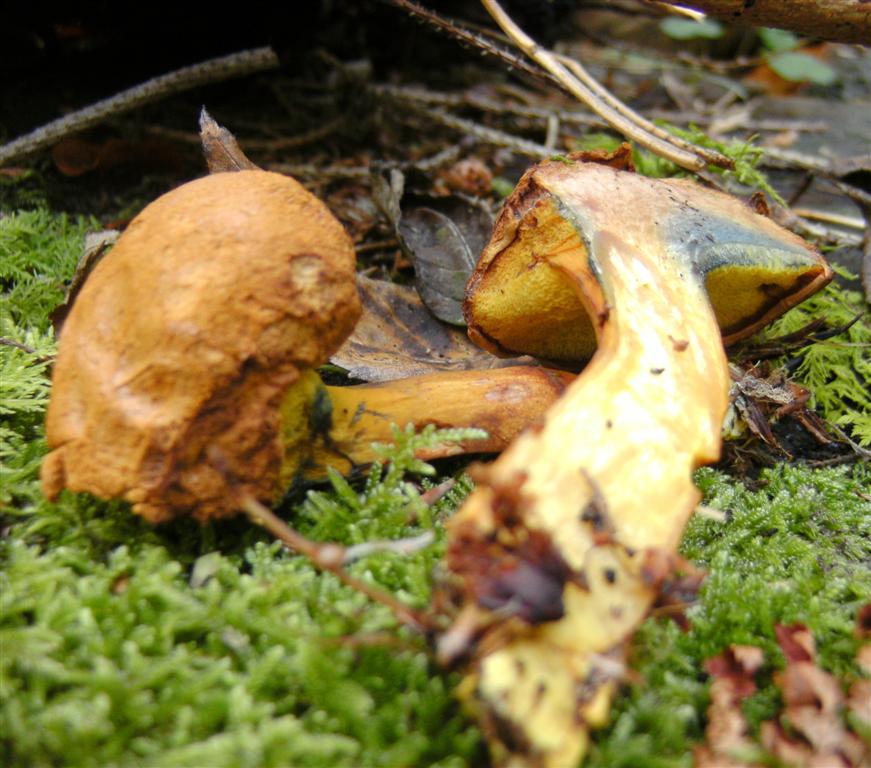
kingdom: Fungi
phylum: Basidiomycota
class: Agaricomycetes
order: Boletales
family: Boletaceae
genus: Buchwaldoboletus
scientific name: Buchwaldoboletus lignicola
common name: stødrørhat
